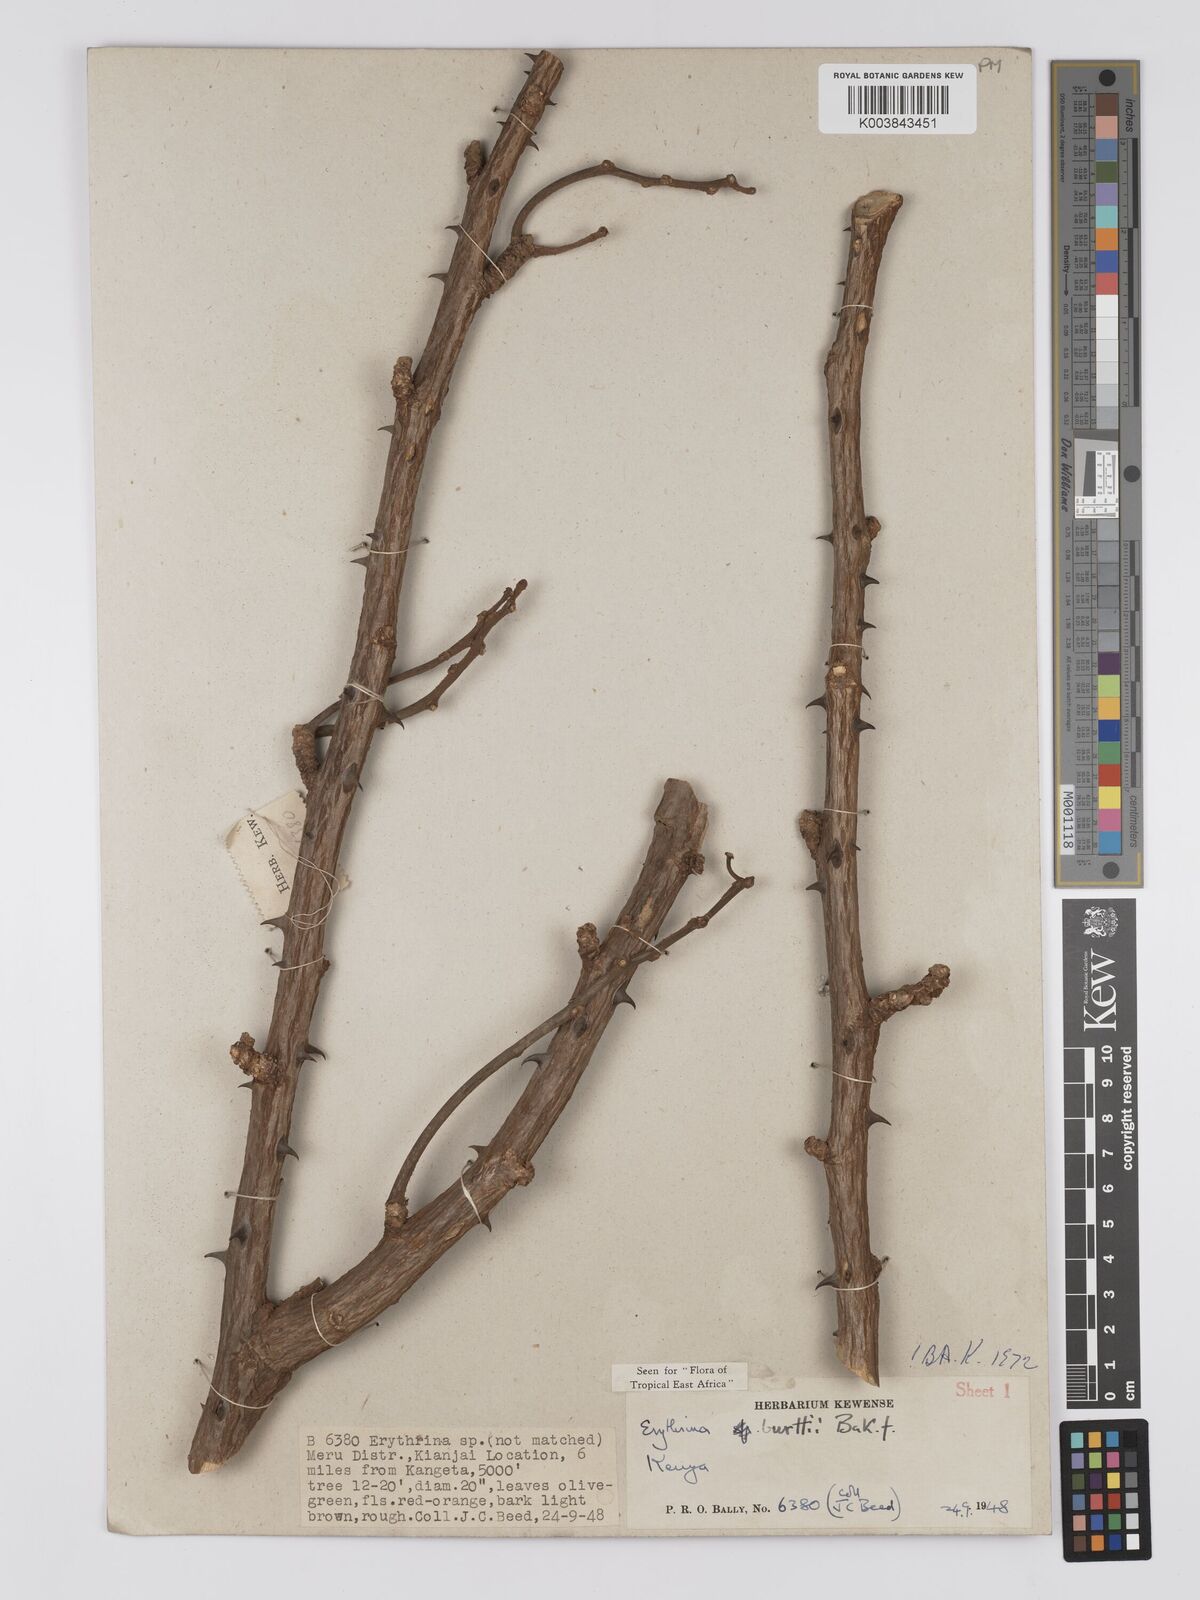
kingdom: Plantae
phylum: Tracheophyta
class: Magnoliopsida
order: Fabales
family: Fabaceae
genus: Erythrina
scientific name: Erythrina burttii
